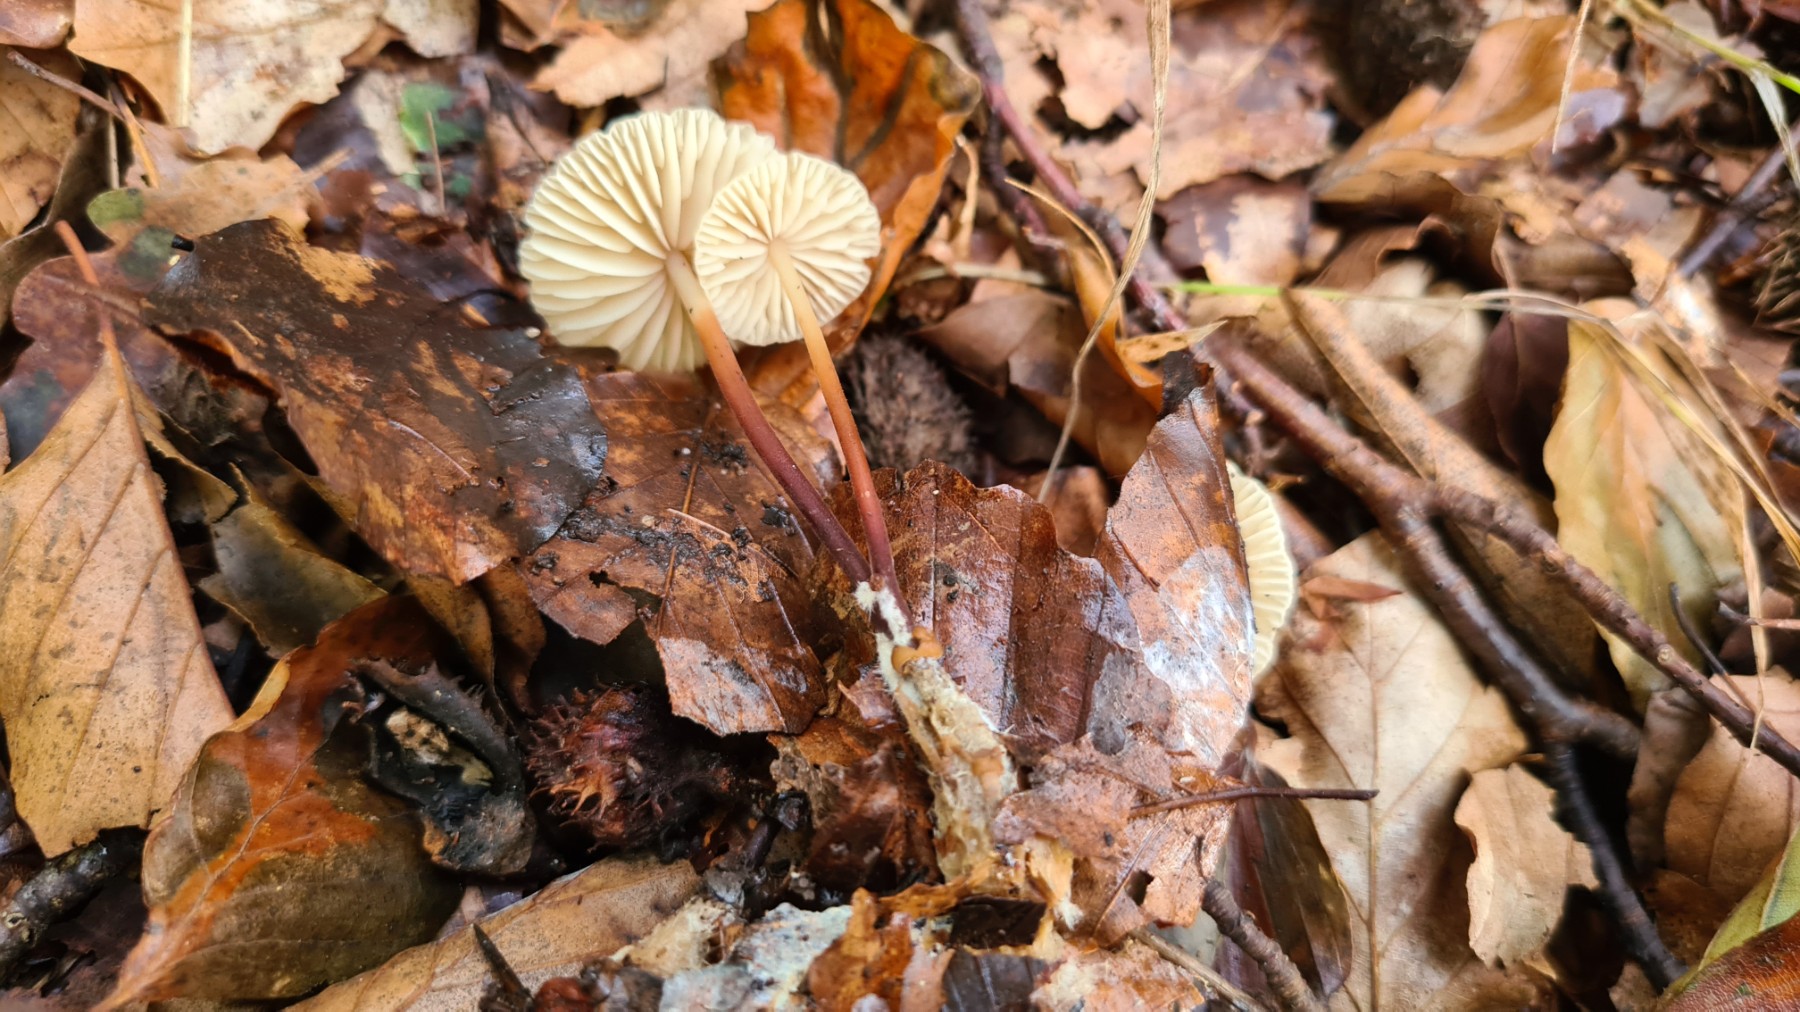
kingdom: Fungi
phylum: Basidiomycota
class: Agaricomycetes
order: Agaricales
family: Marasmiaceae
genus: Marasmius
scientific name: Marasmius torquescens
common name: filtfodet bruskhat
